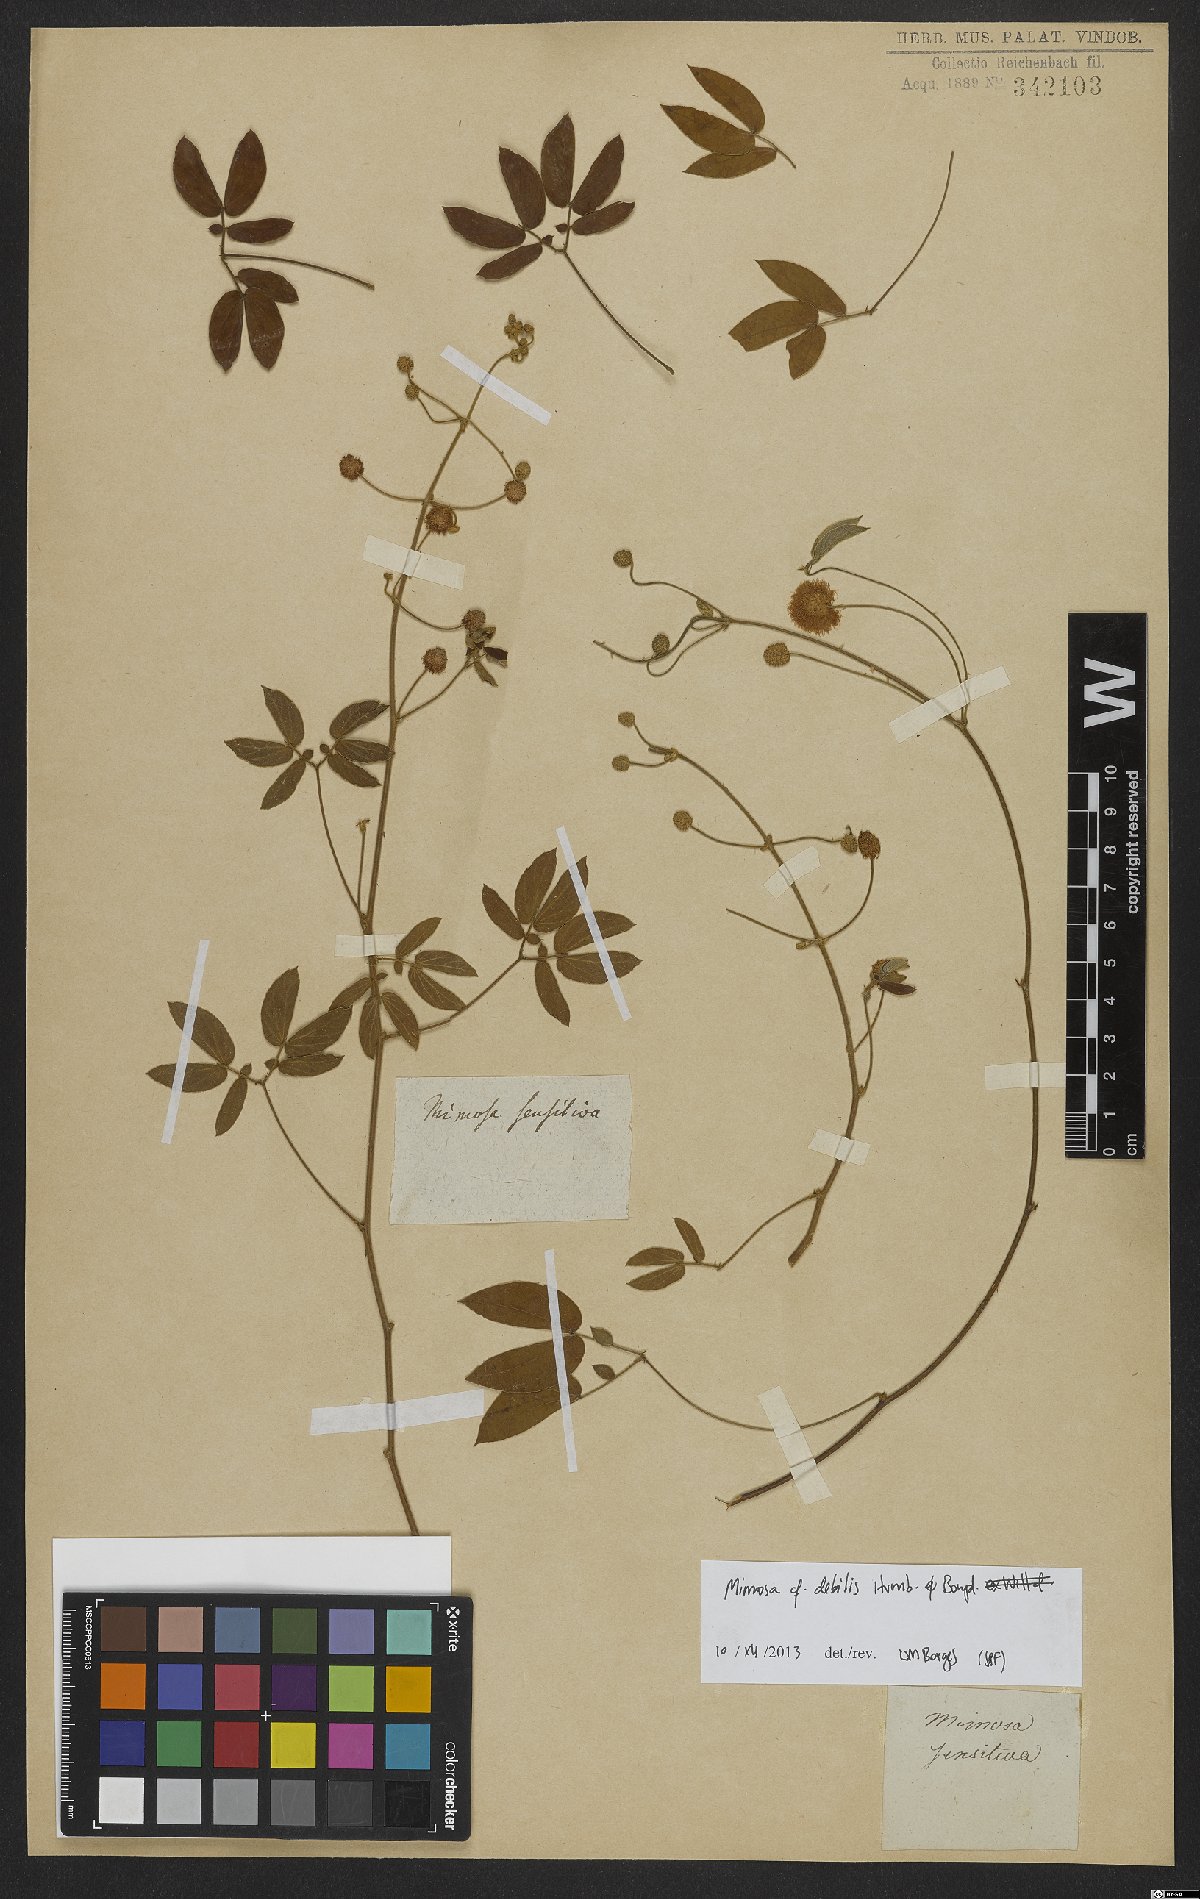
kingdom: Plantae
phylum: Tracheophyta
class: Magnoliopsida
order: Fabales
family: Fabaceae
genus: Mimosa
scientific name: Mimosa debilis
